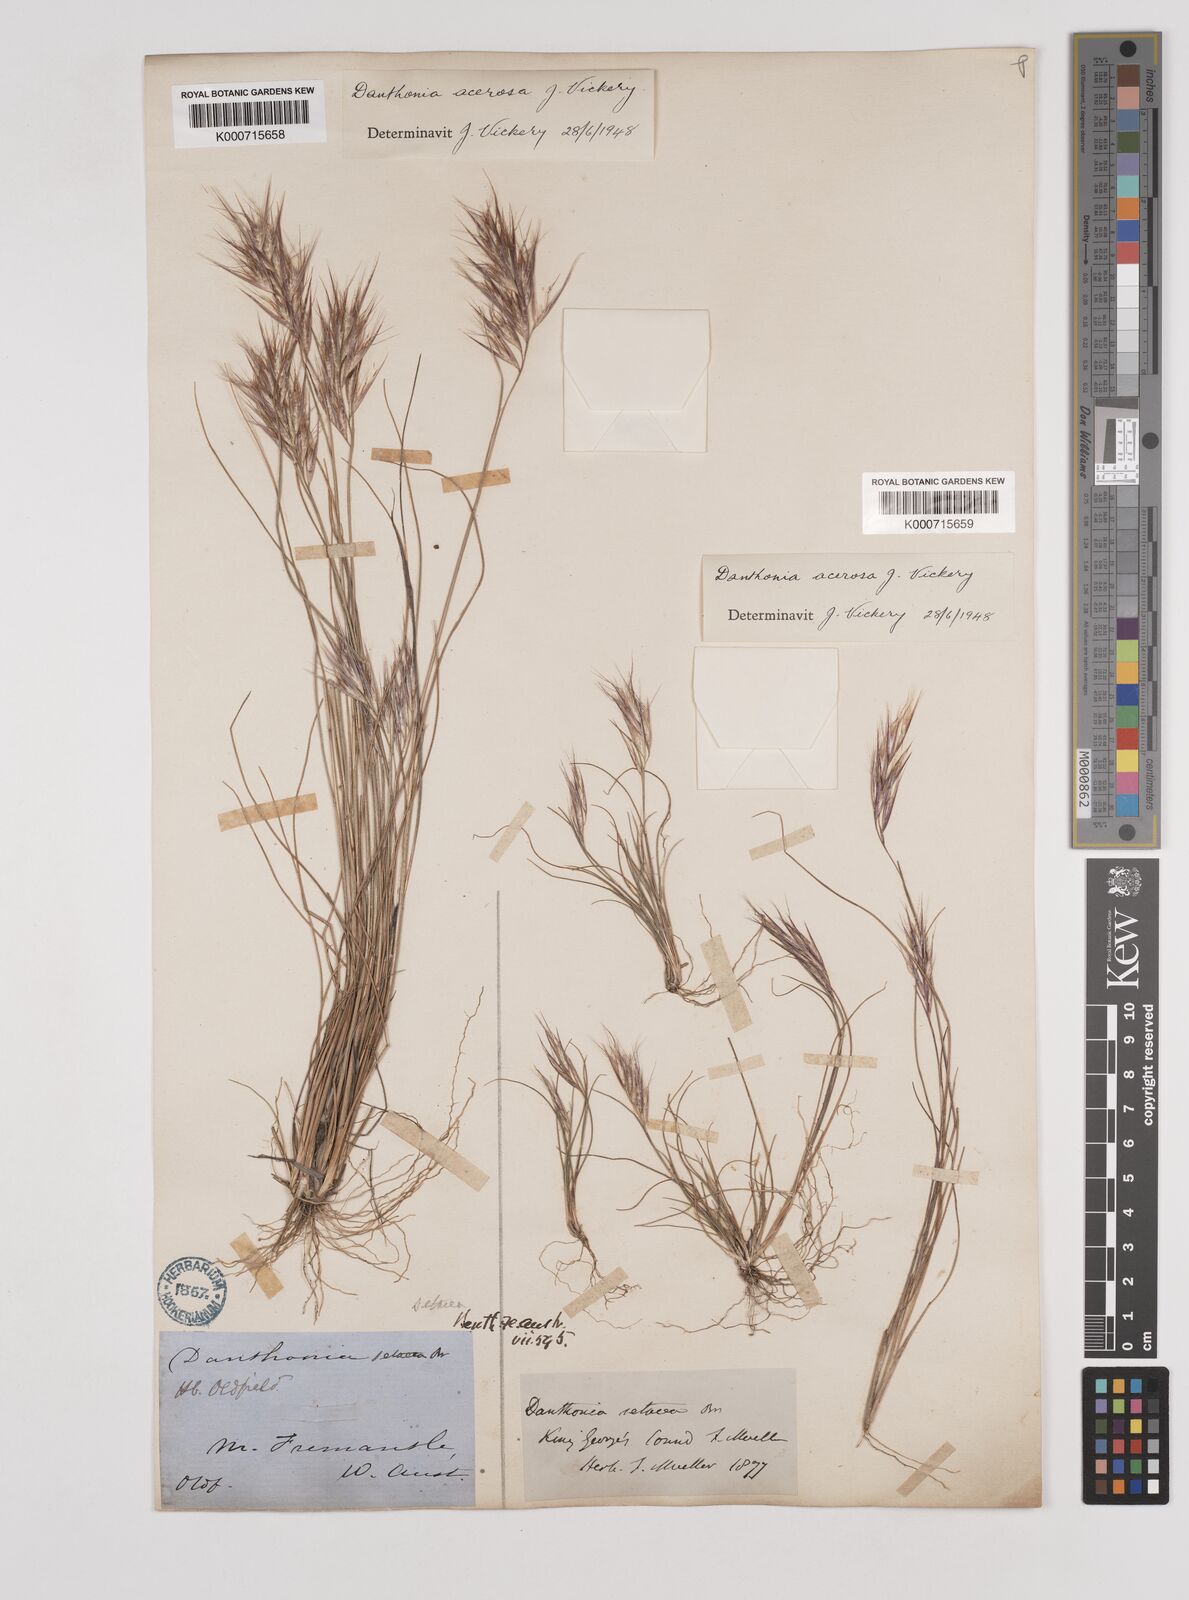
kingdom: Plantae
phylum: Tracheophyta
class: Liliopsida
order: Poales
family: Poaceae
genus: Rytidosperma
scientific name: Rytidosperma acerosum
